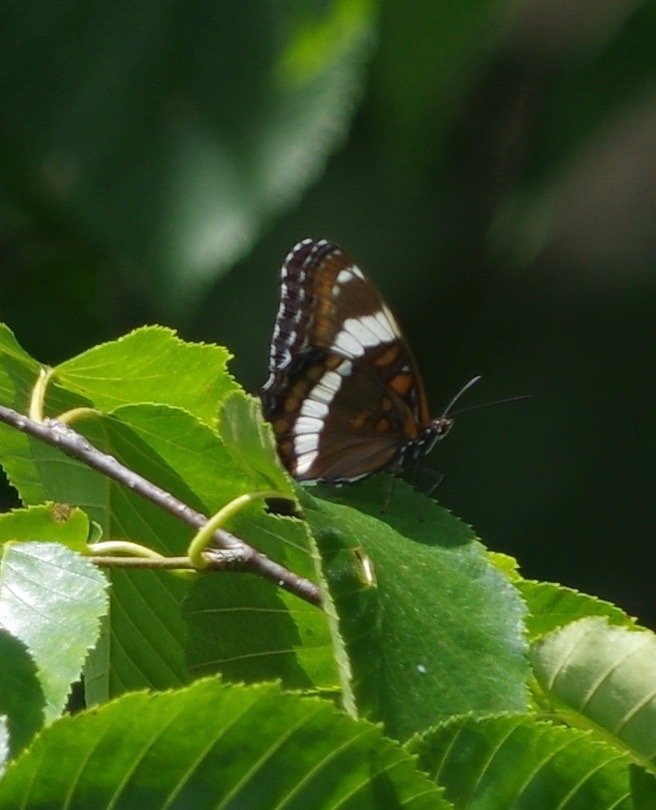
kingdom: Animalia
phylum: Arthropoda
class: Insecta
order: Lepidoptera
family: Nymphalidae
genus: Limenitis
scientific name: Limenitis arthemis
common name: Red-spotted Admiral
